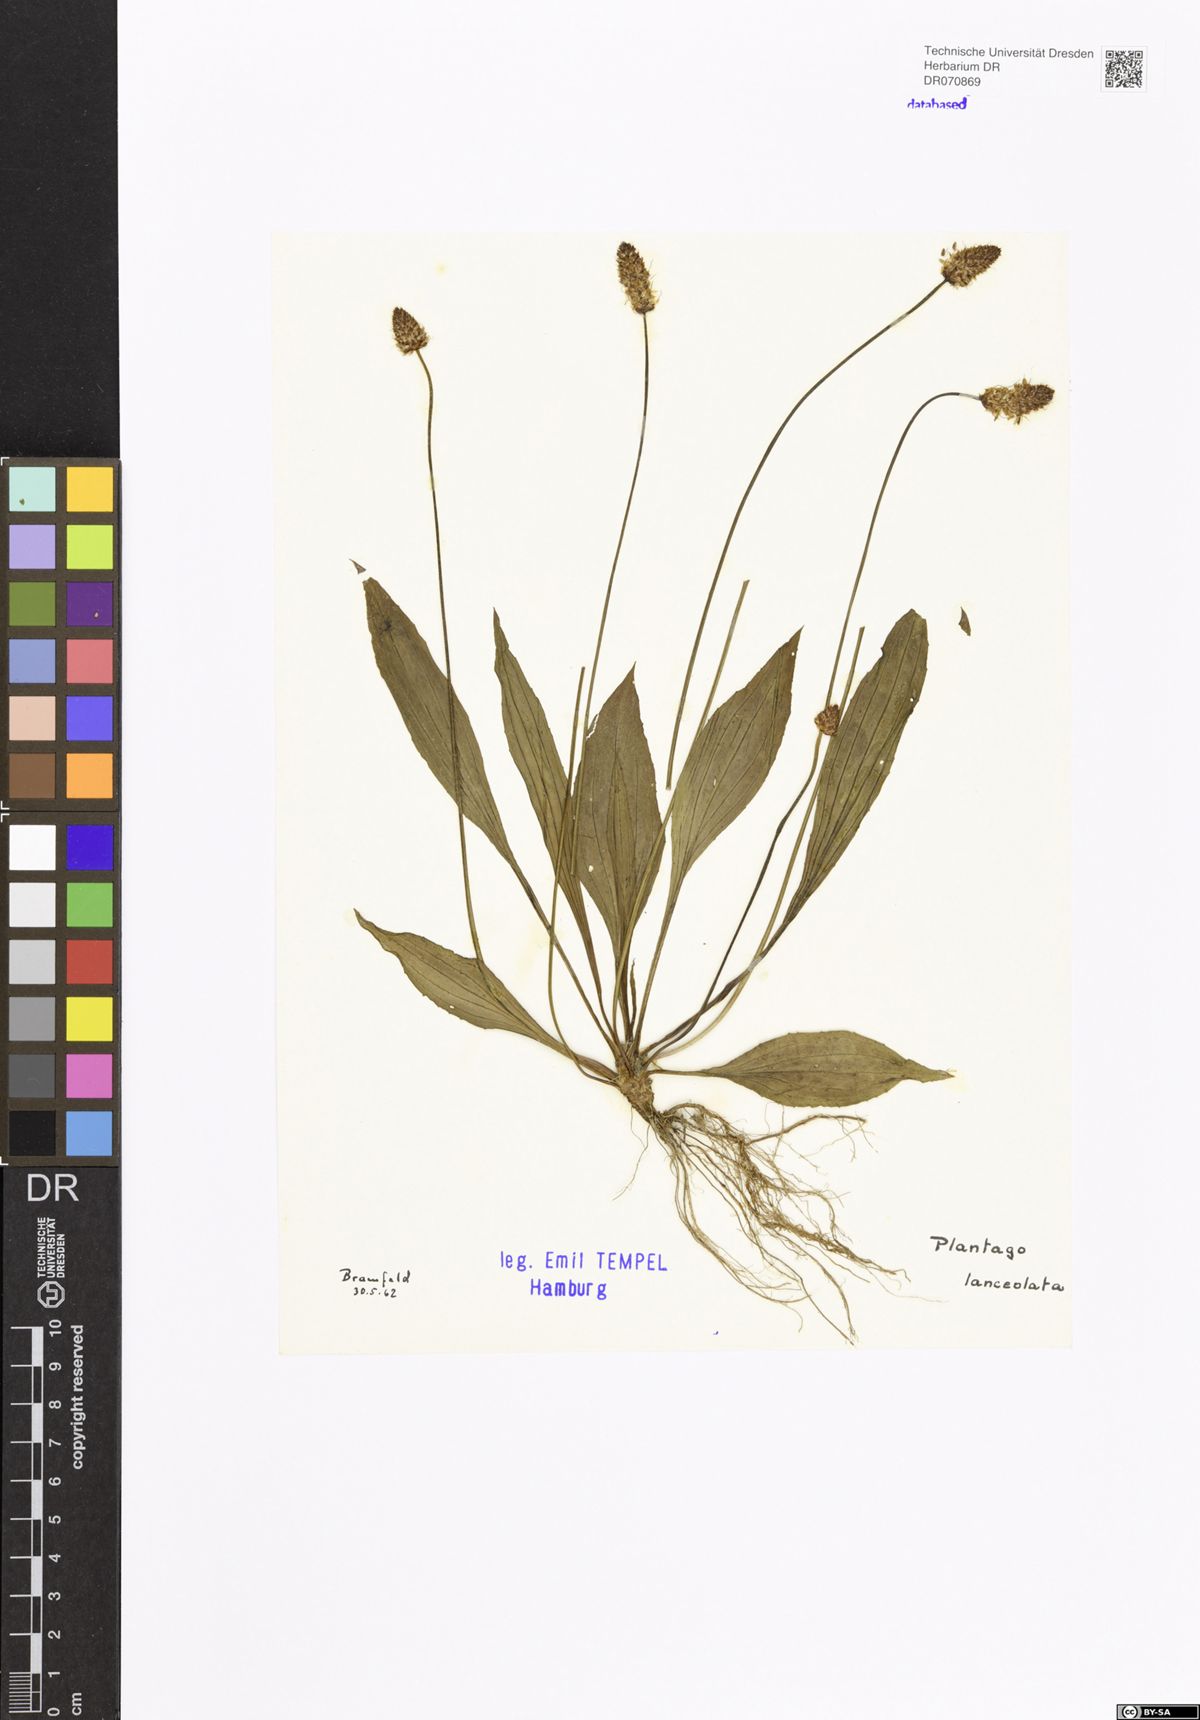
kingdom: Plantae
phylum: Tracheophyta
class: Magnoliopsida
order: Lamiales
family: Plantaginaceae
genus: Plantago
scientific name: Plantago lanceolata
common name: Ribwort plantain
